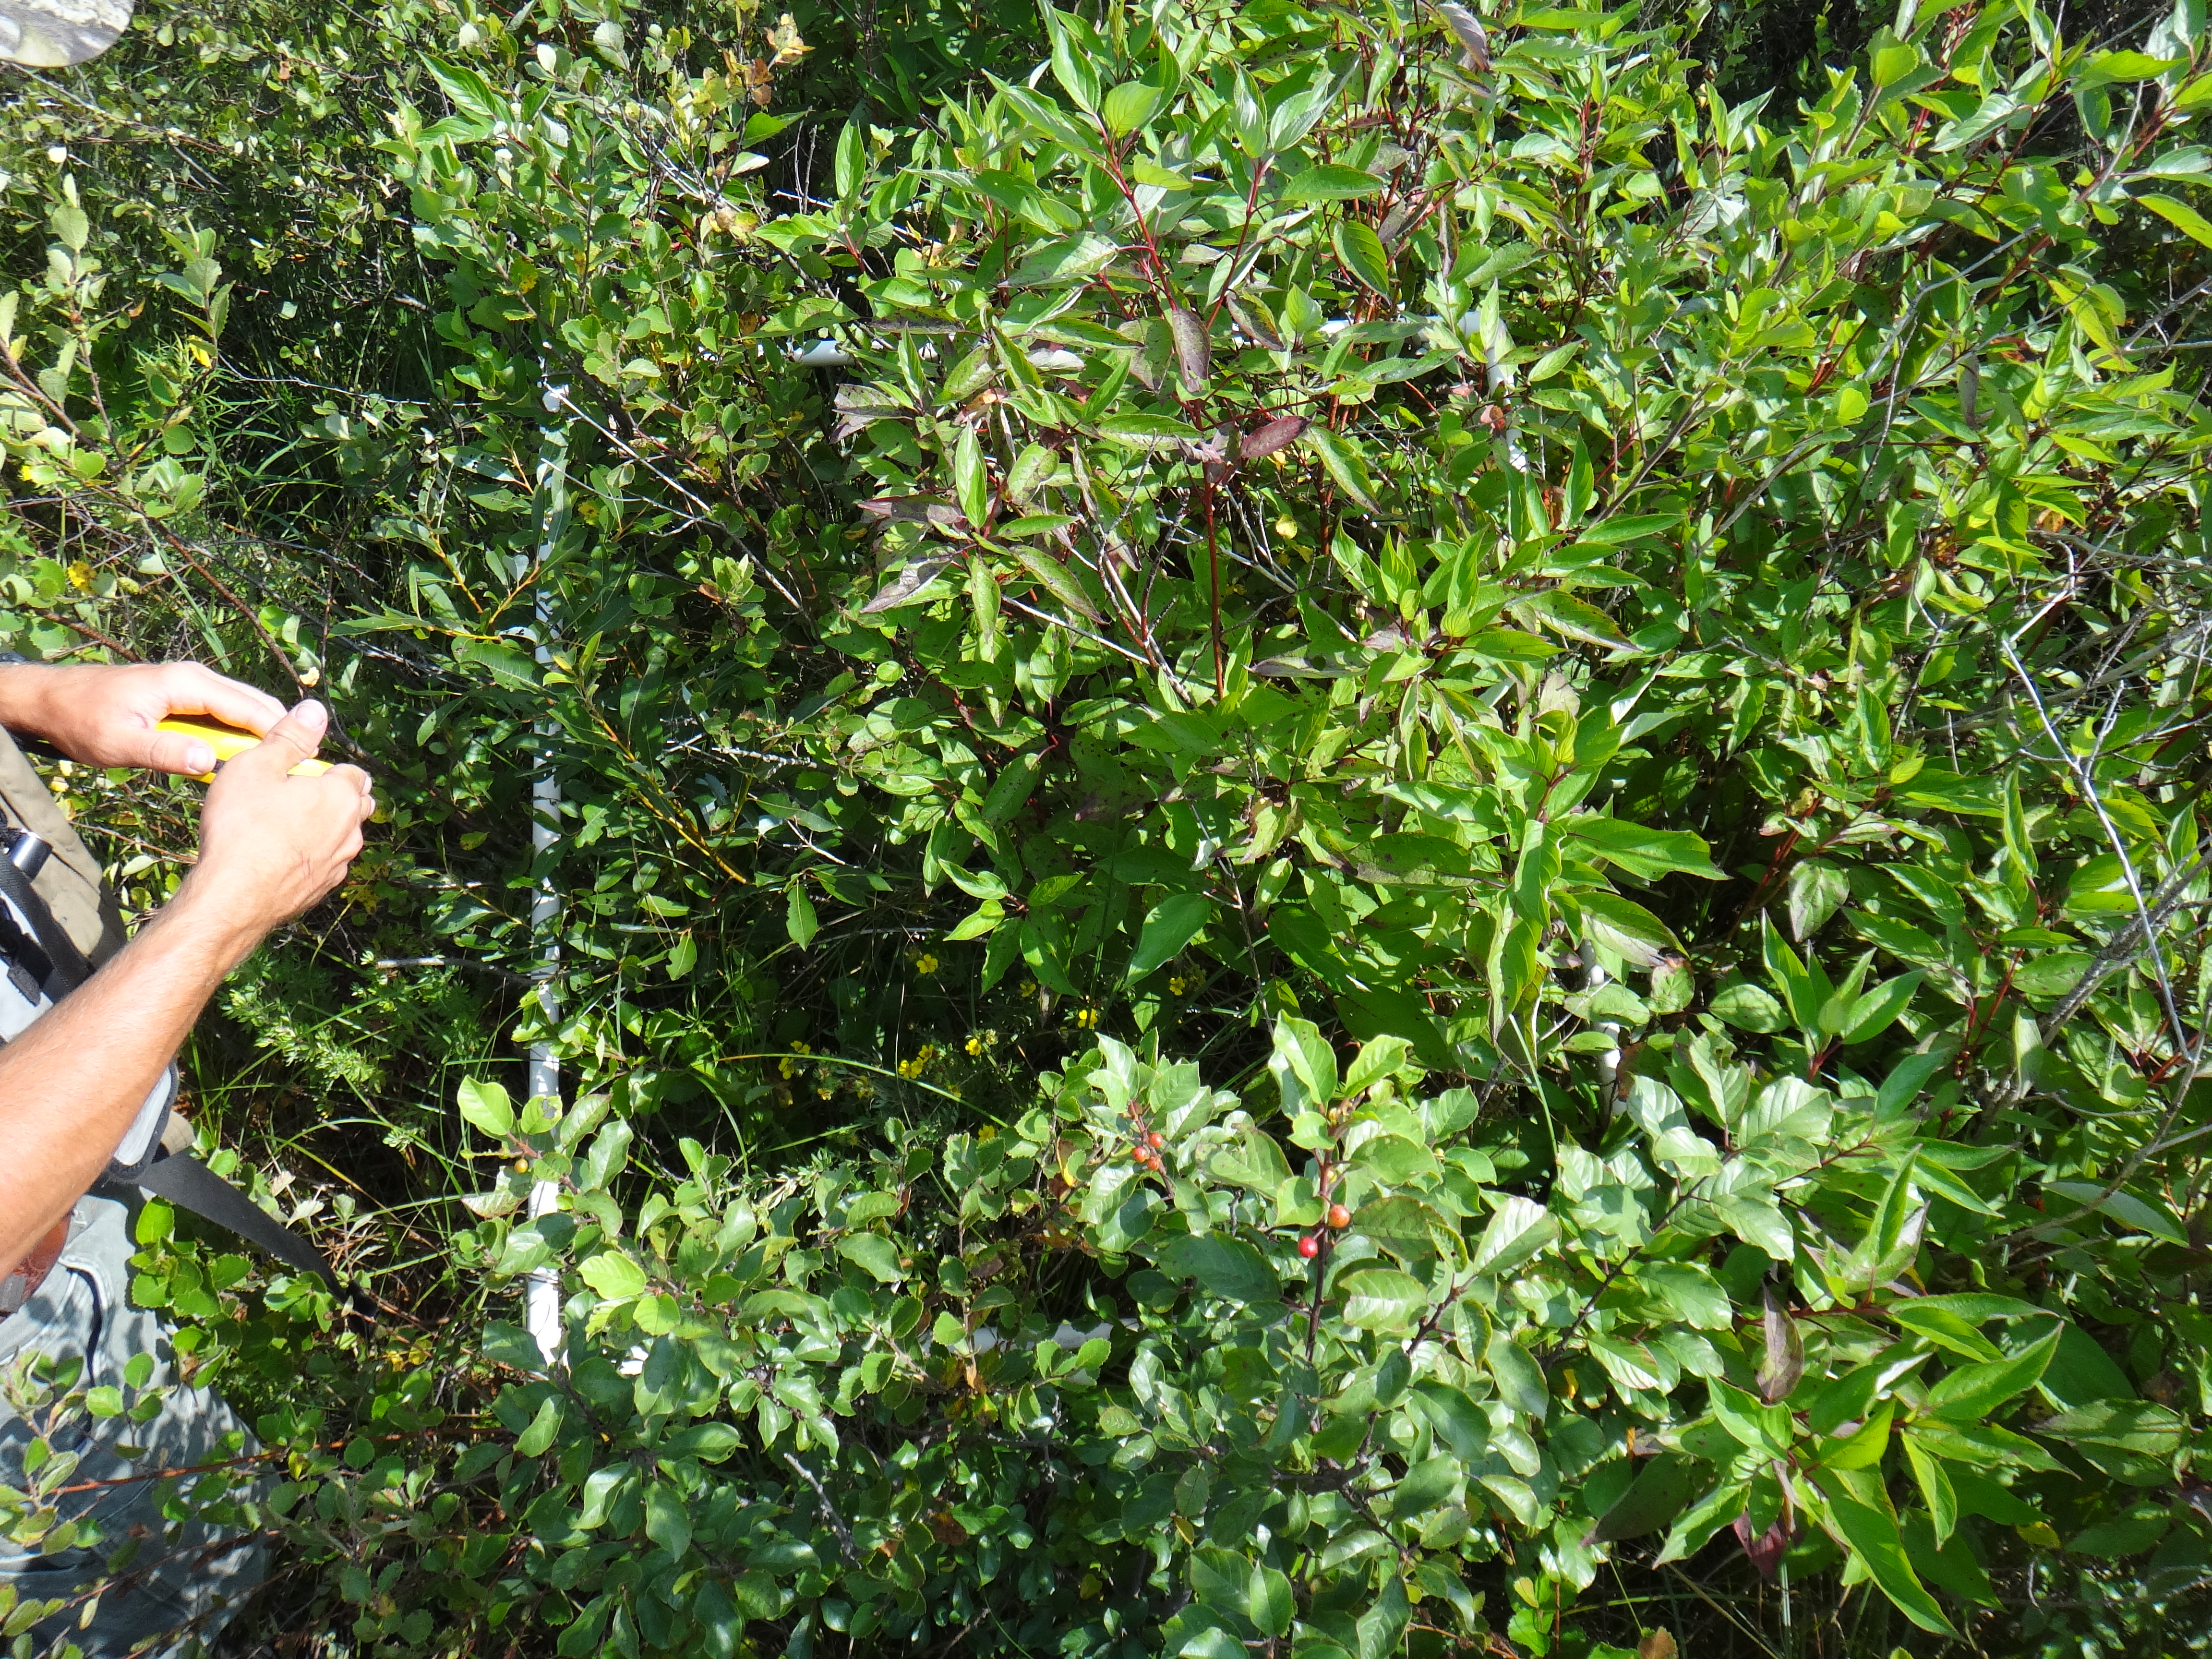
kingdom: Plantae
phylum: Tracheophyta
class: Liliopsida
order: Poales
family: Cyperaceae
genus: Carex
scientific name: Carex stricta
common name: Hummock sedge
